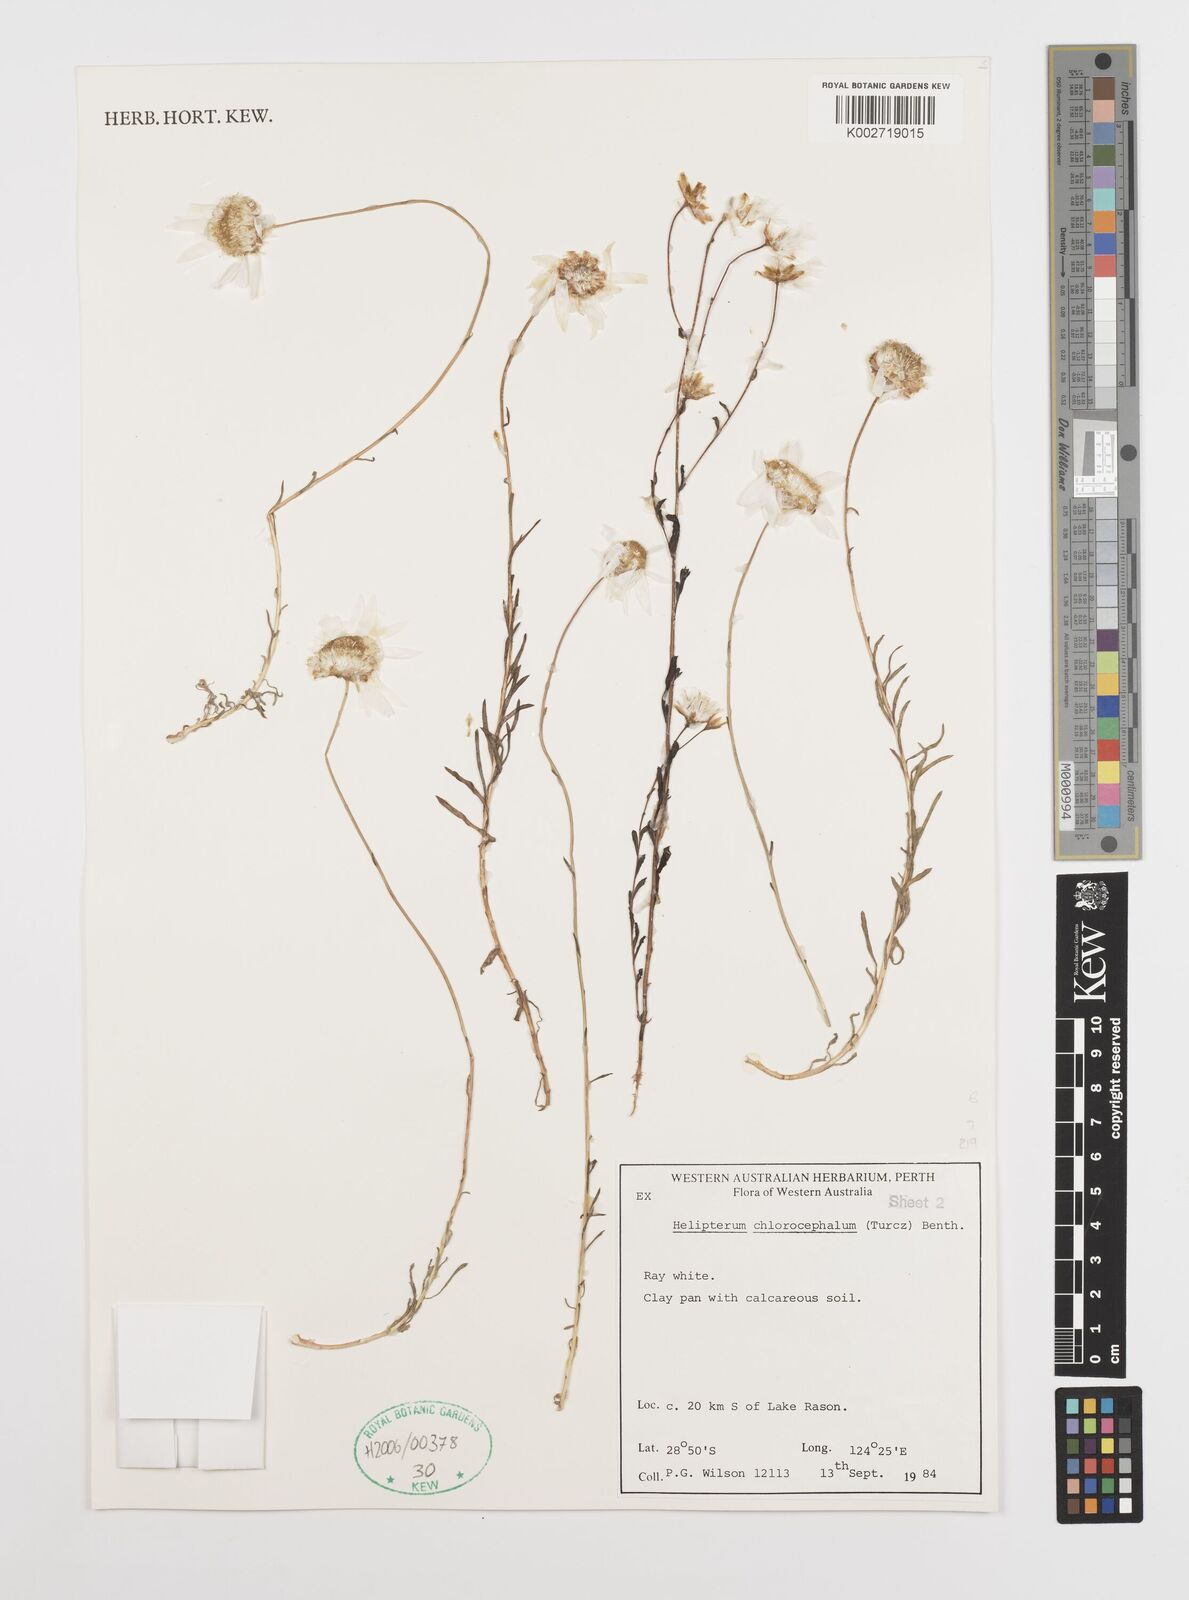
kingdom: Plantae
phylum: Tracheophyta
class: Magnoliopsida
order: Asterales
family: Asteraceae
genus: Rhodanthe
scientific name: Rhodanthe chlorocephala
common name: Rosy sunray
